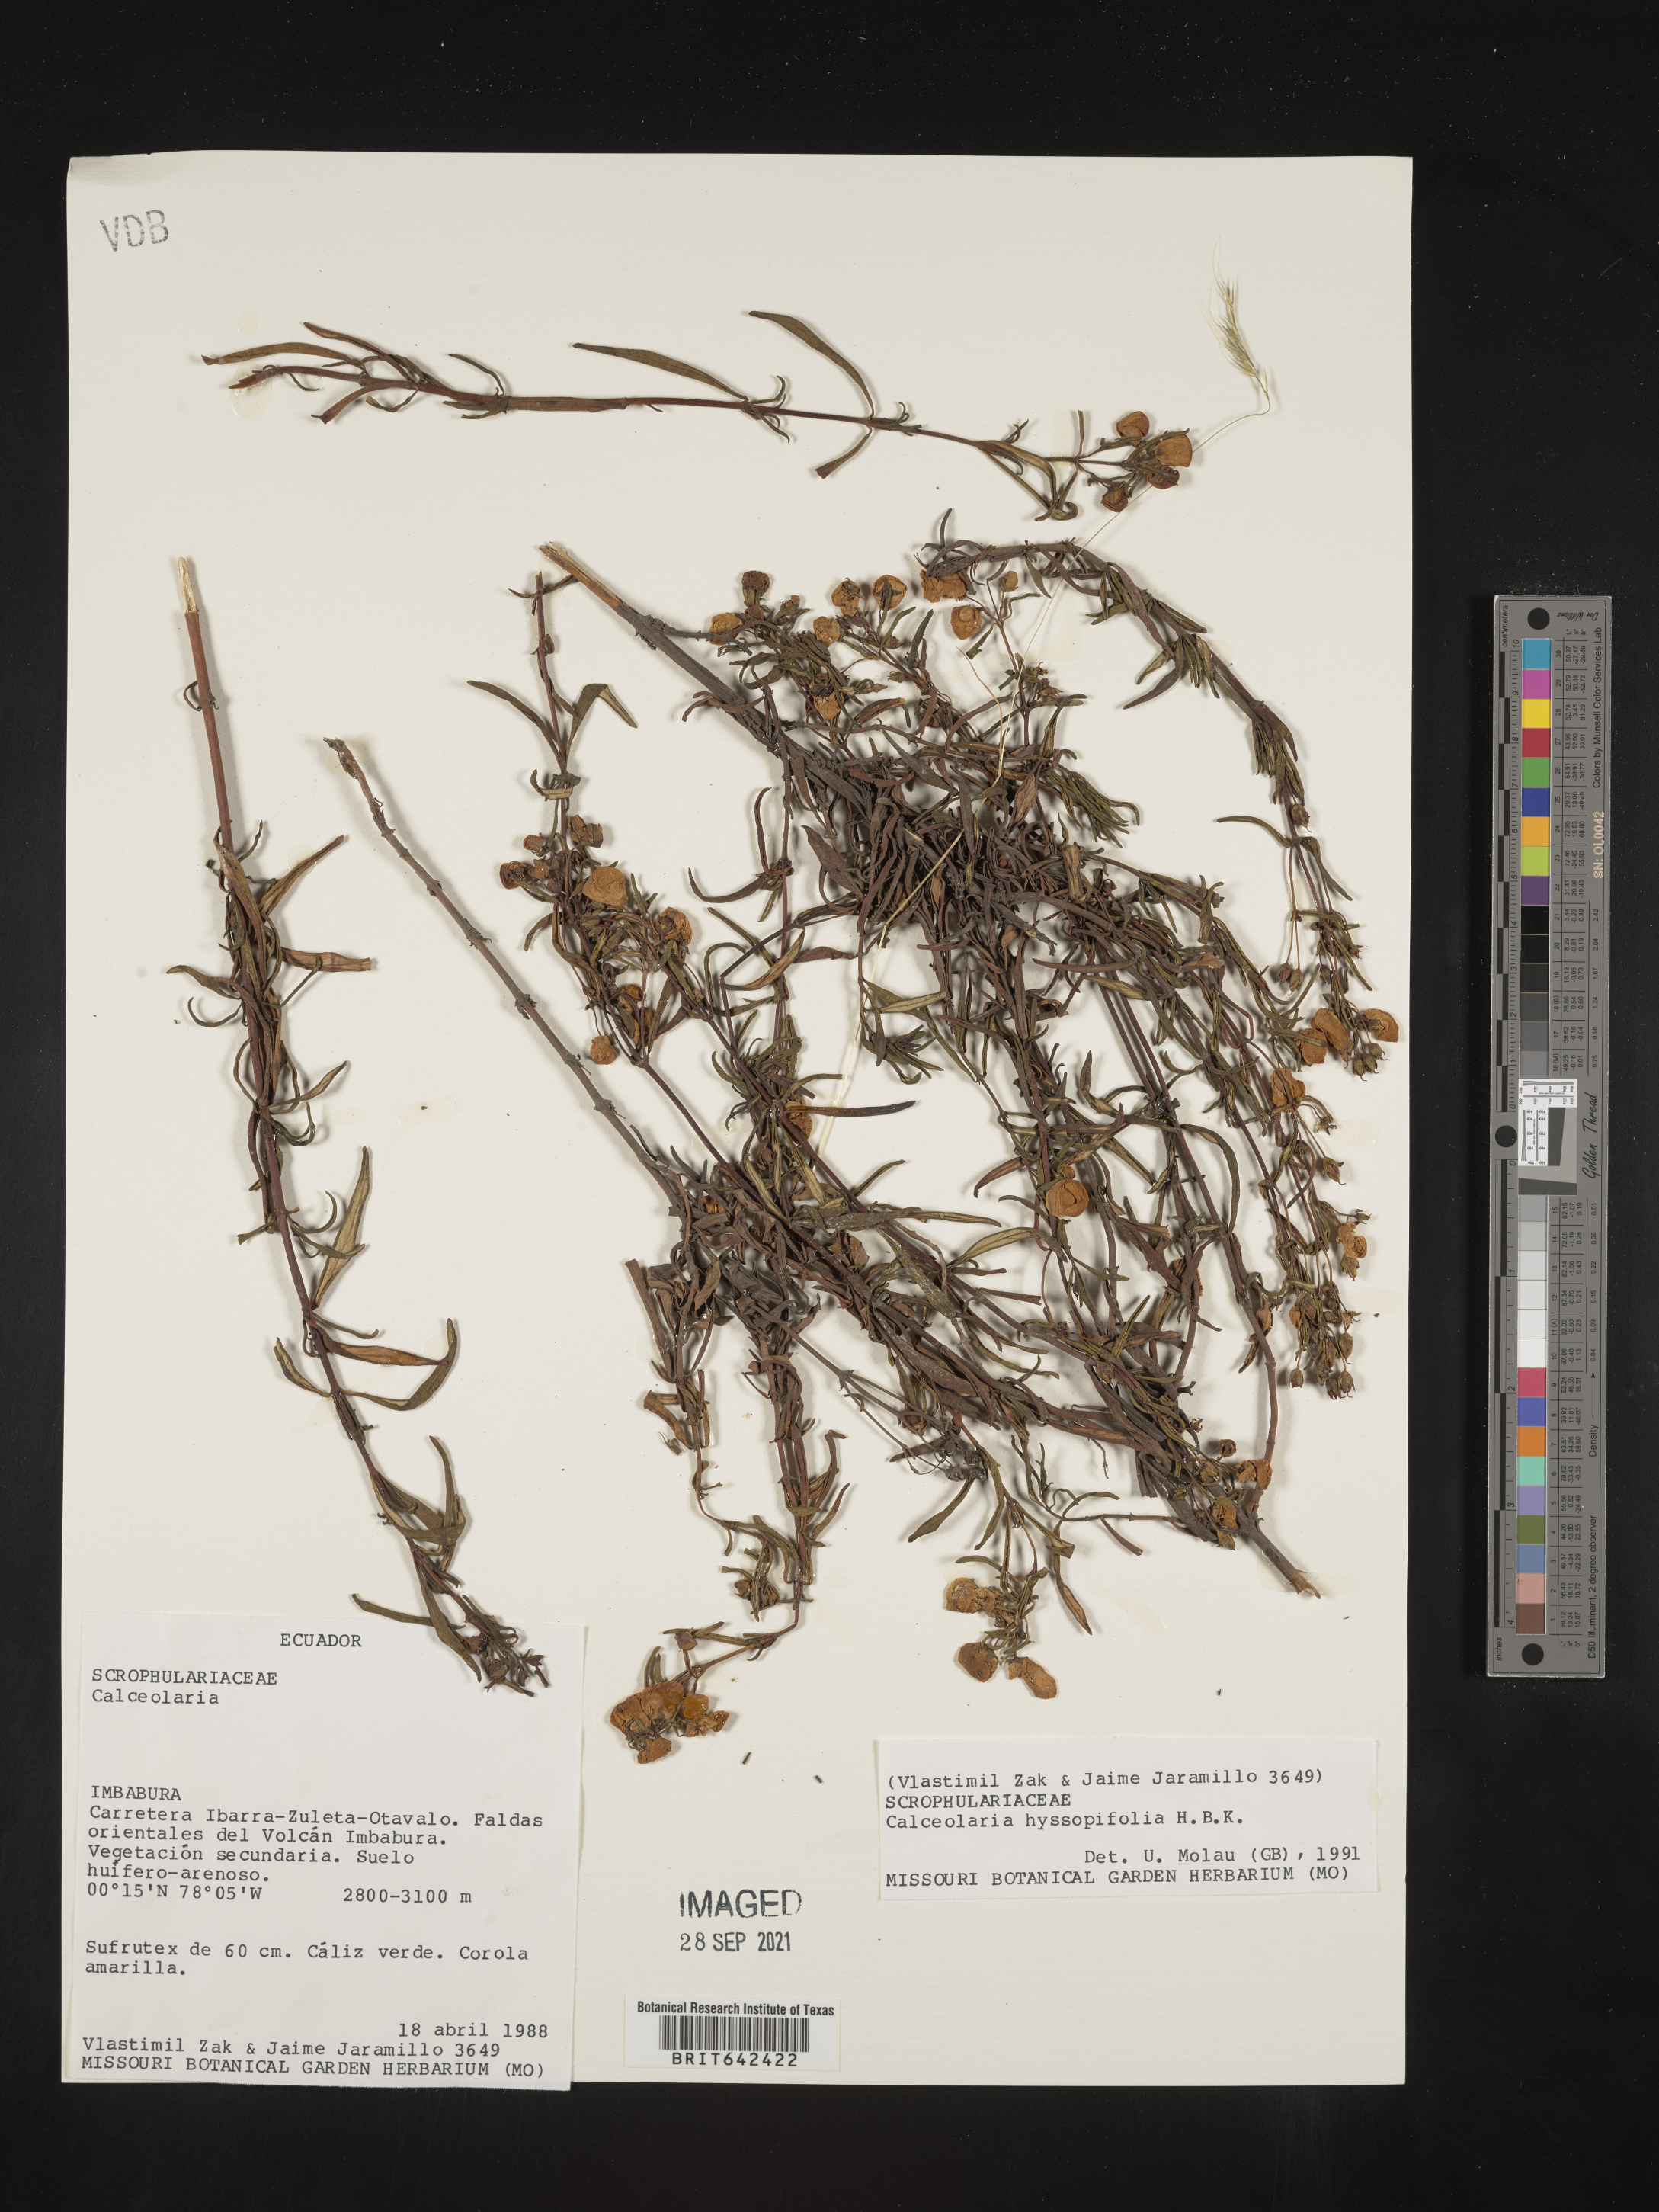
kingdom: Plantae
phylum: Tracheophyta
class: Magnoliopsida
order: Lamiales
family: Calceolariaceae
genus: Calceolaria
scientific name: Calceolaria hyssopifolia
